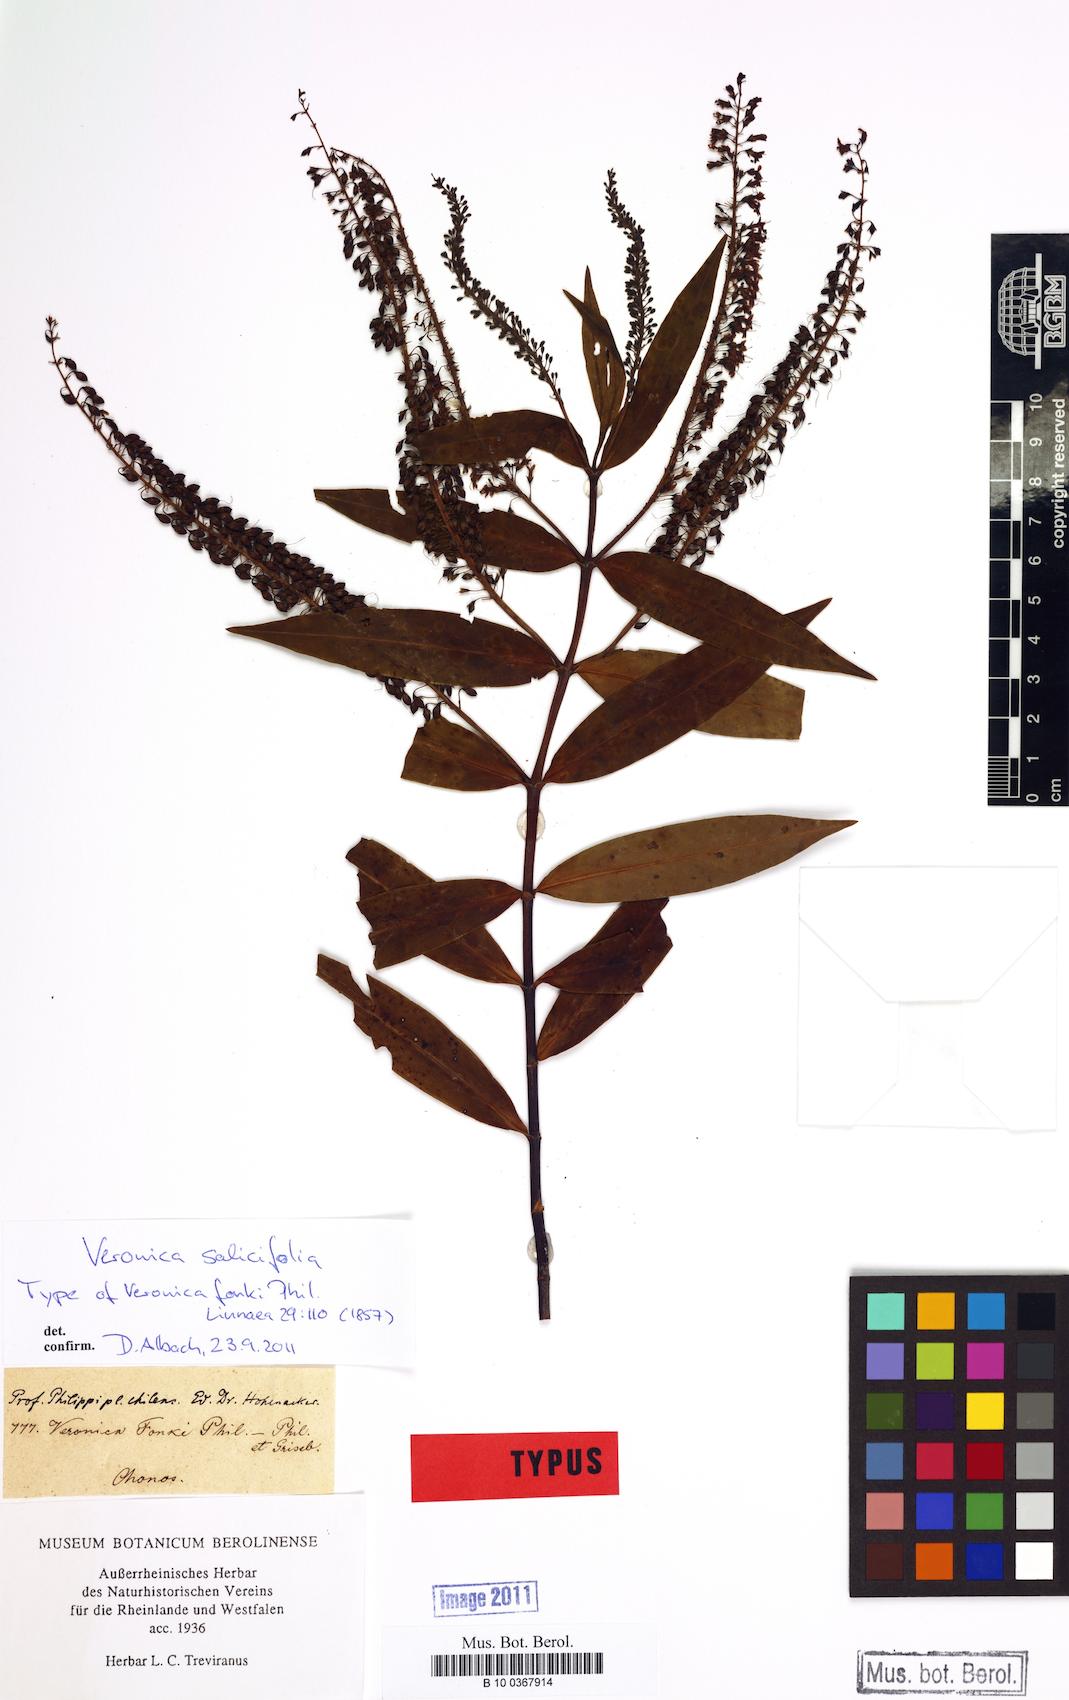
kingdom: Plantae
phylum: Tracheophyta
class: Magnoliopsida
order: Lamiales
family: Plantaginaceae
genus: Veronica
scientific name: Veronica salicifolia
